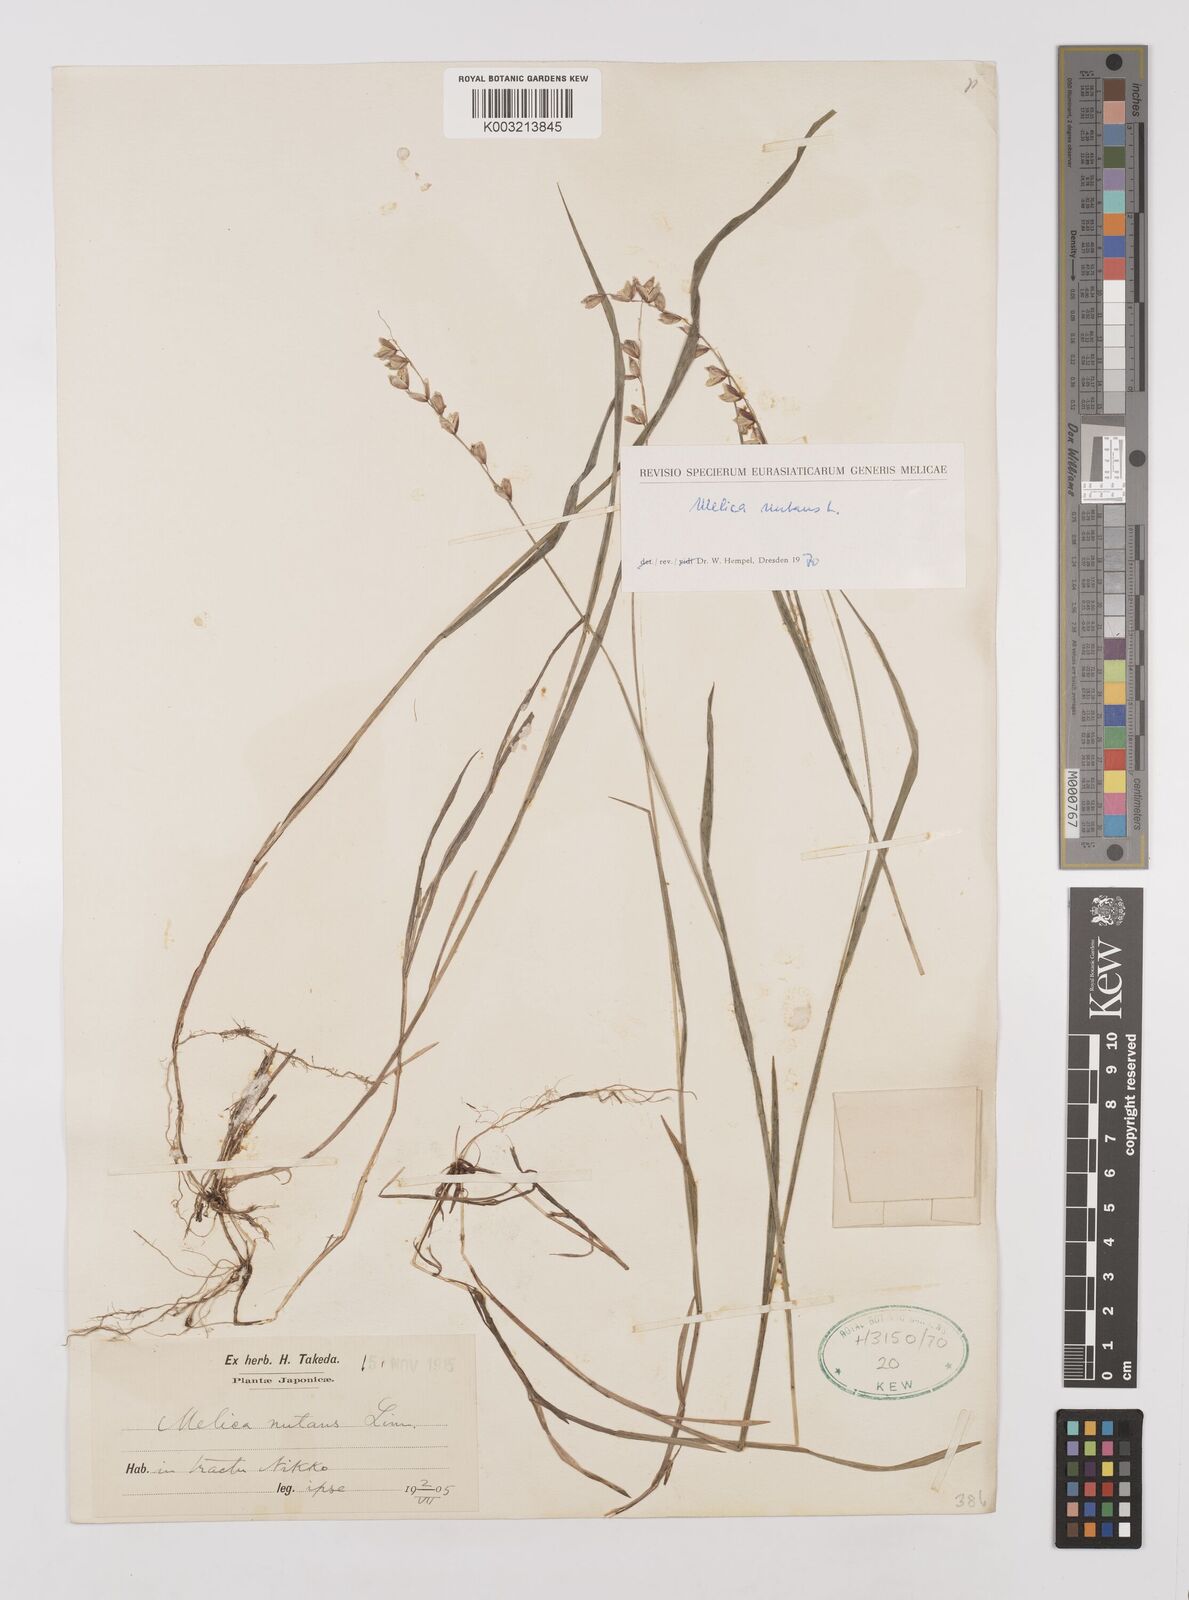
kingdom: Plantae
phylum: Tracheophyta
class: Liliopsida
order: Poales
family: Poaceae
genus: Melica
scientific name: Melica nutans
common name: Mountain melick
